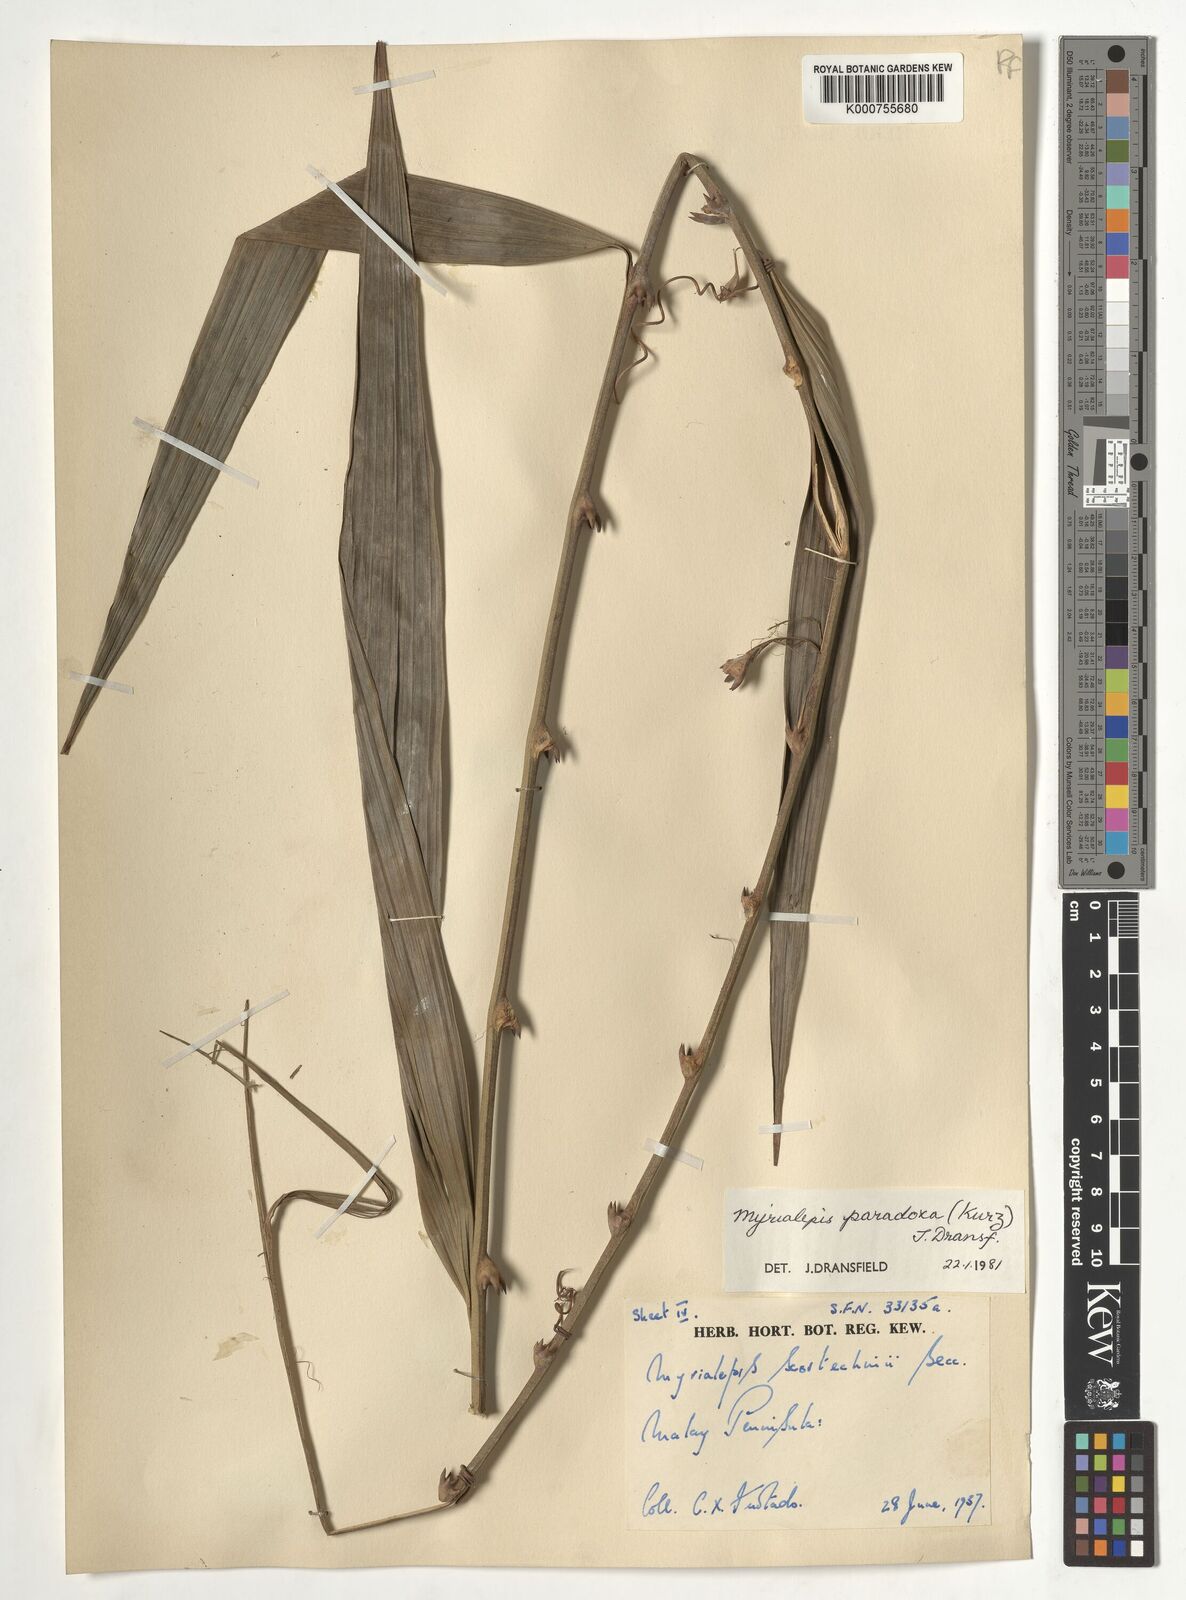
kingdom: Plantae
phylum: Tracheophyta
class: Liliopsida
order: Arecales
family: Arecaceae
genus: Myrialepis
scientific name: Myrialepis paradoxa
